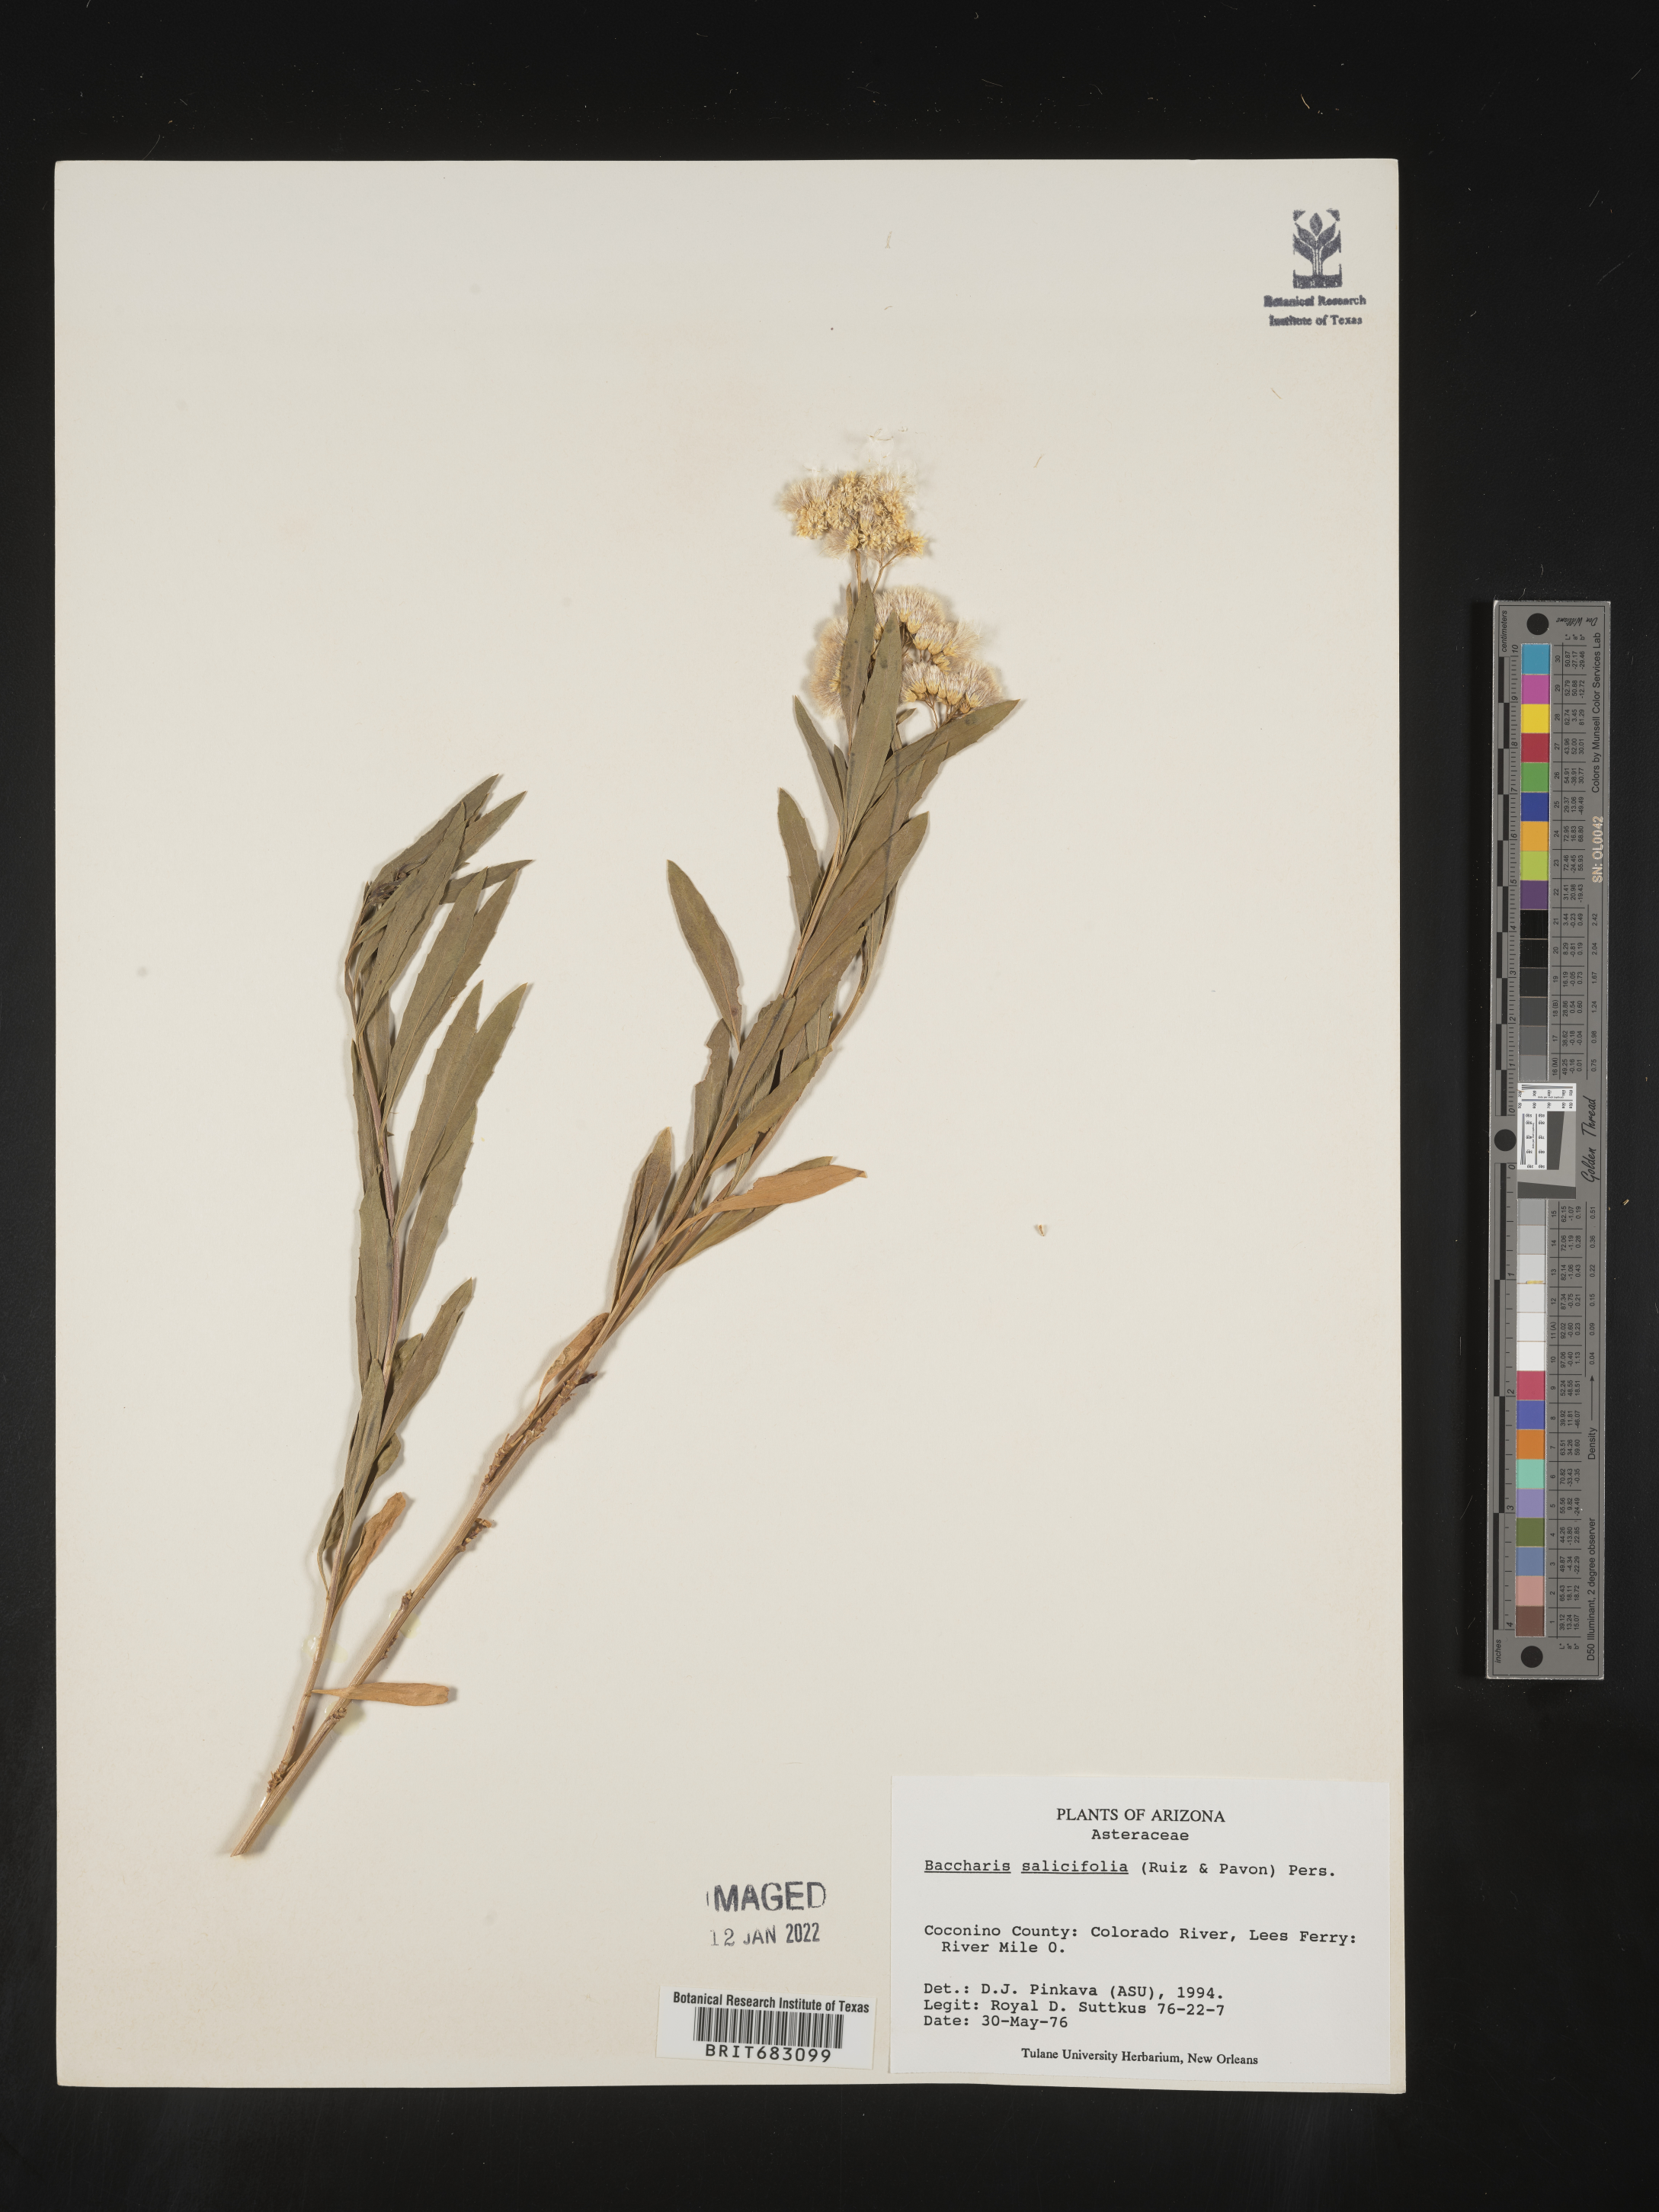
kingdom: Plantae
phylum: Tracheophyta
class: Magnoliopsida
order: Asterales
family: Asteraceae
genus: Baccharis
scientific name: Baccharis salicifolia
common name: Sticky baccharis
